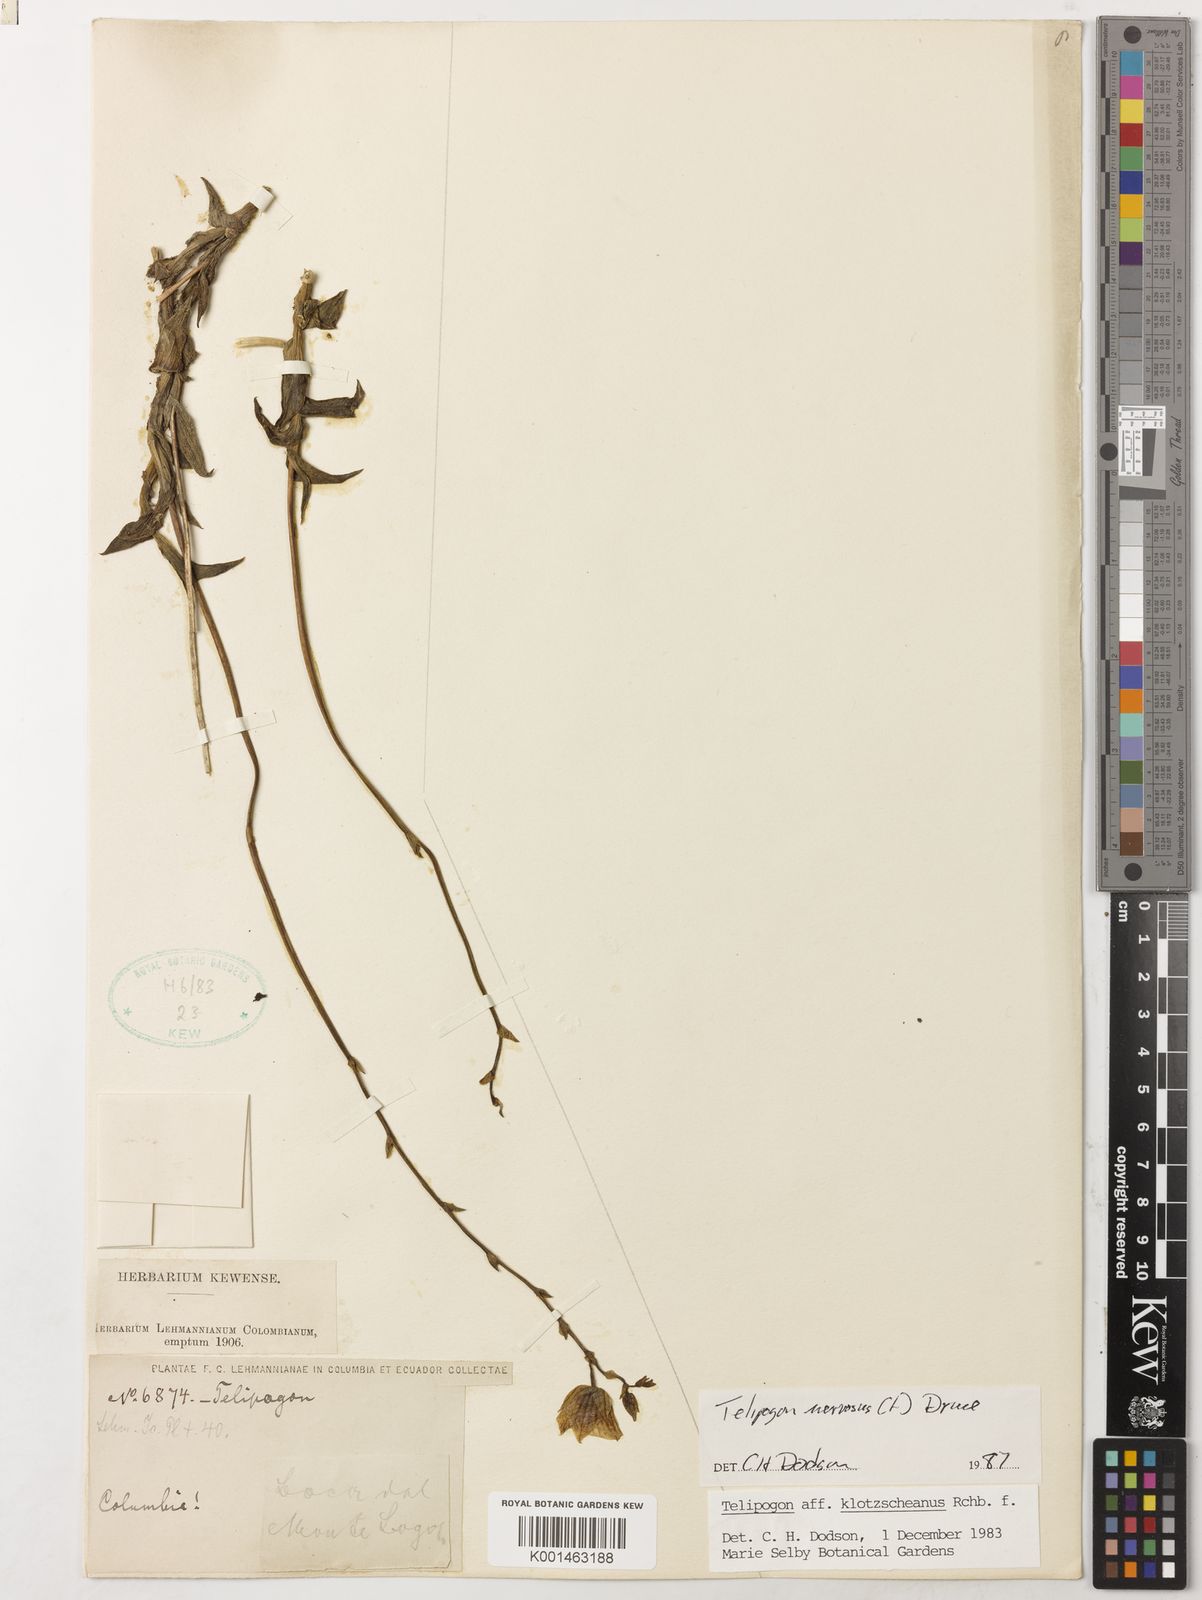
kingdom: Plantae
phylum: Tracheophyta
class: Liliopsida
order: Asparagales
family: Orchidaceae
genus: Telipogon
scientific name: Telipogon nervosus
